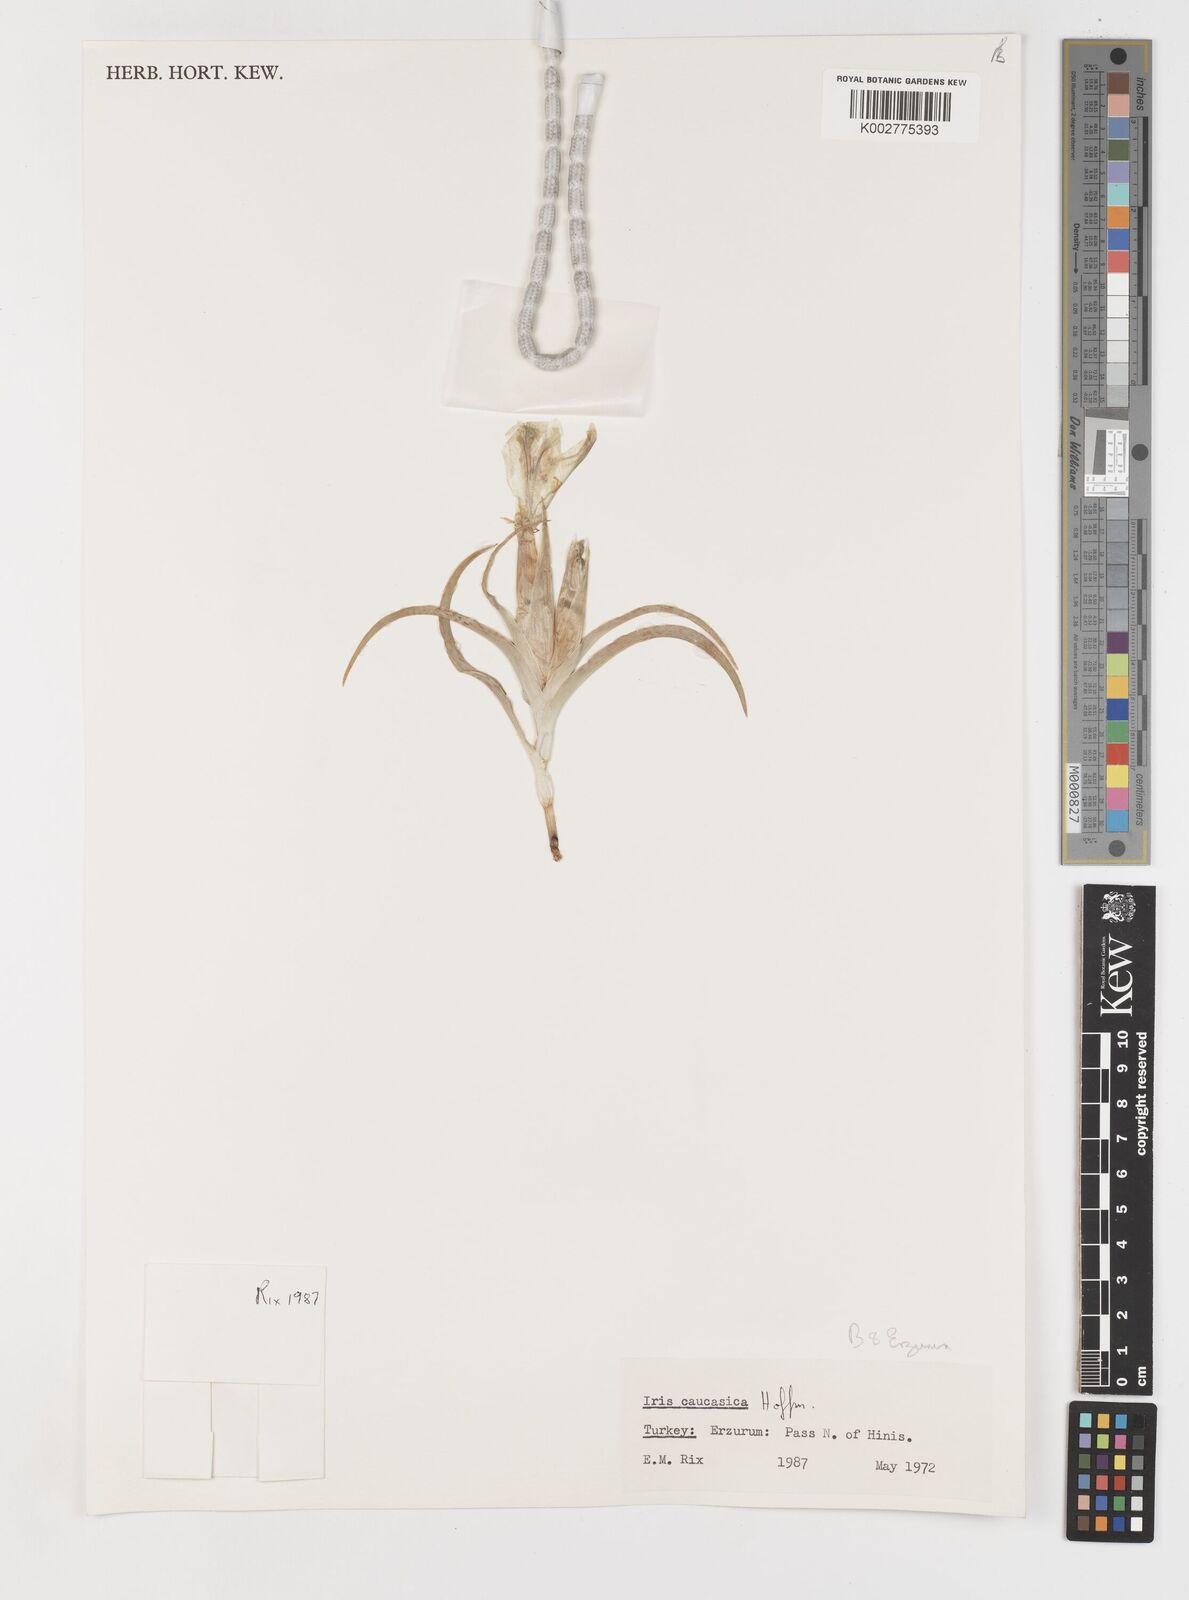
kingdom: Plantae
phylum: Tracheophyta
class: Liliopsida
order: Asparagales
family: Iridaceae
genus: Iris
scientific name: Iris caucasica
